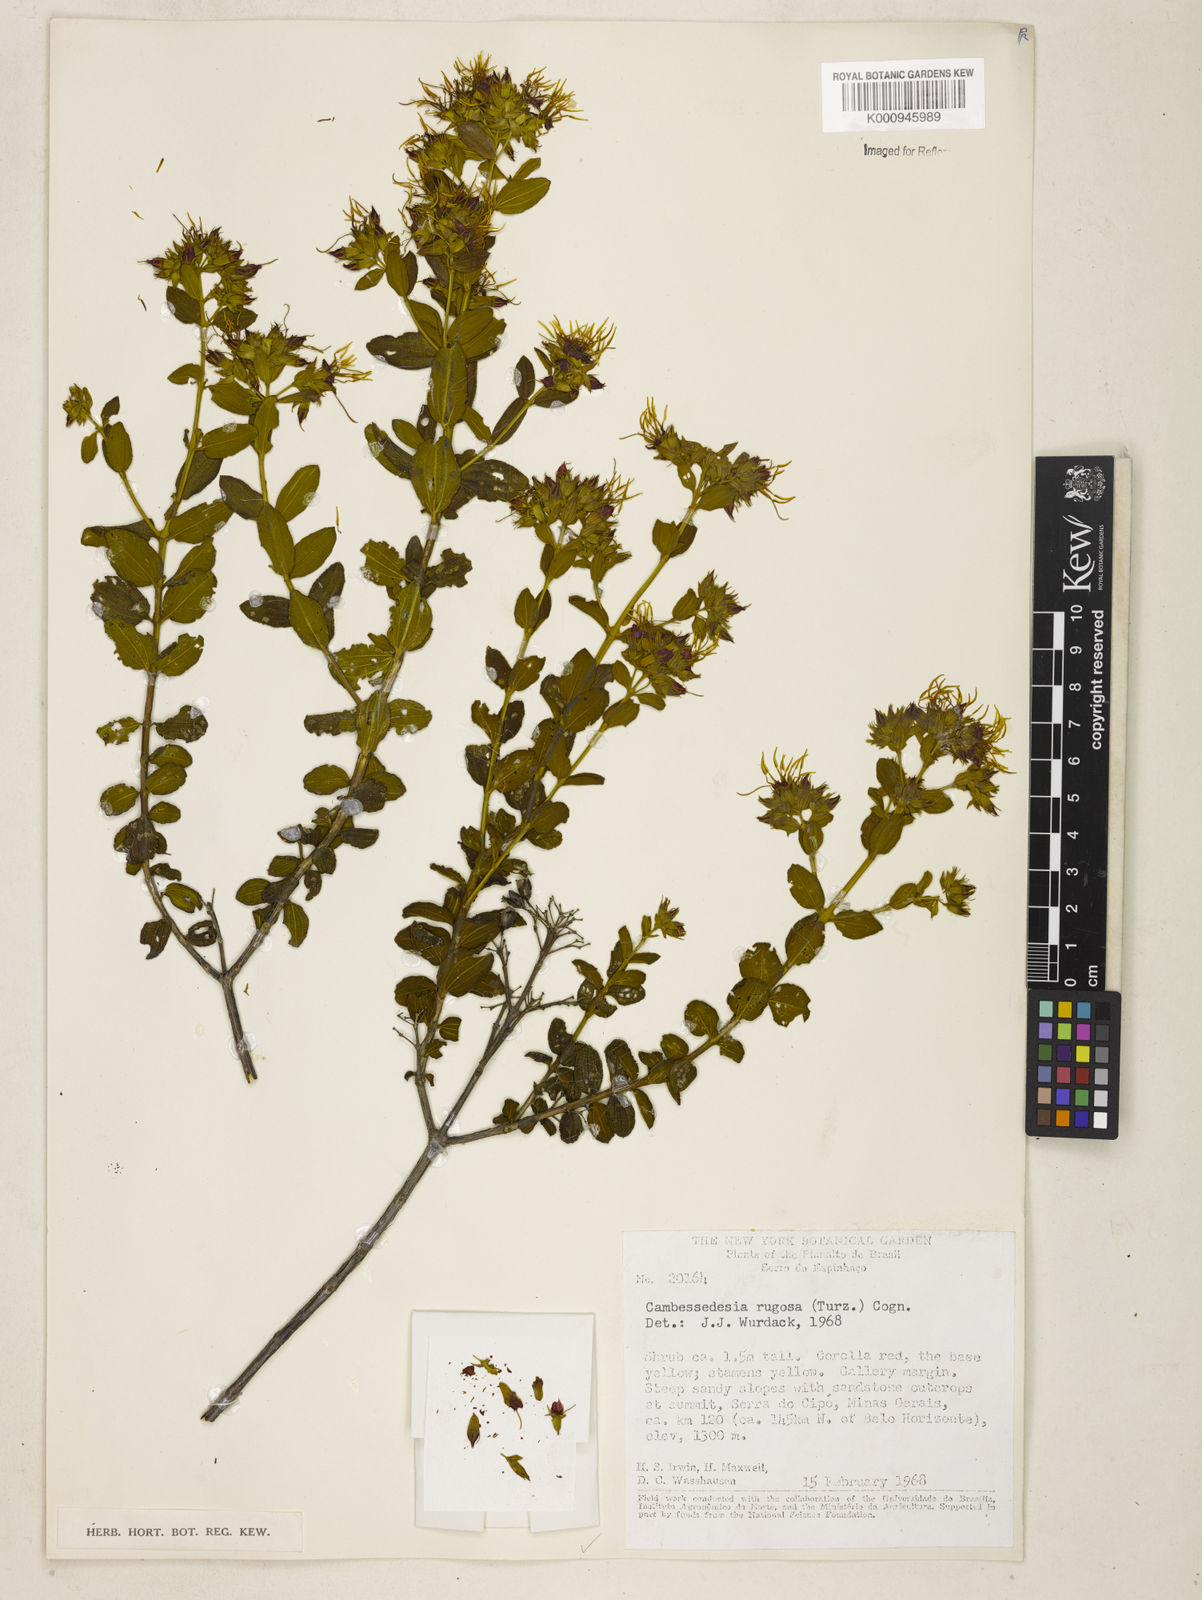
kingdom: Plantae
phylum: Tracheophyta
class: Magnoliopsida
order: Myrtales
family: Melastomataceae
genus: Cambessedesia
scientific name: Cambessedesia corymbosa
